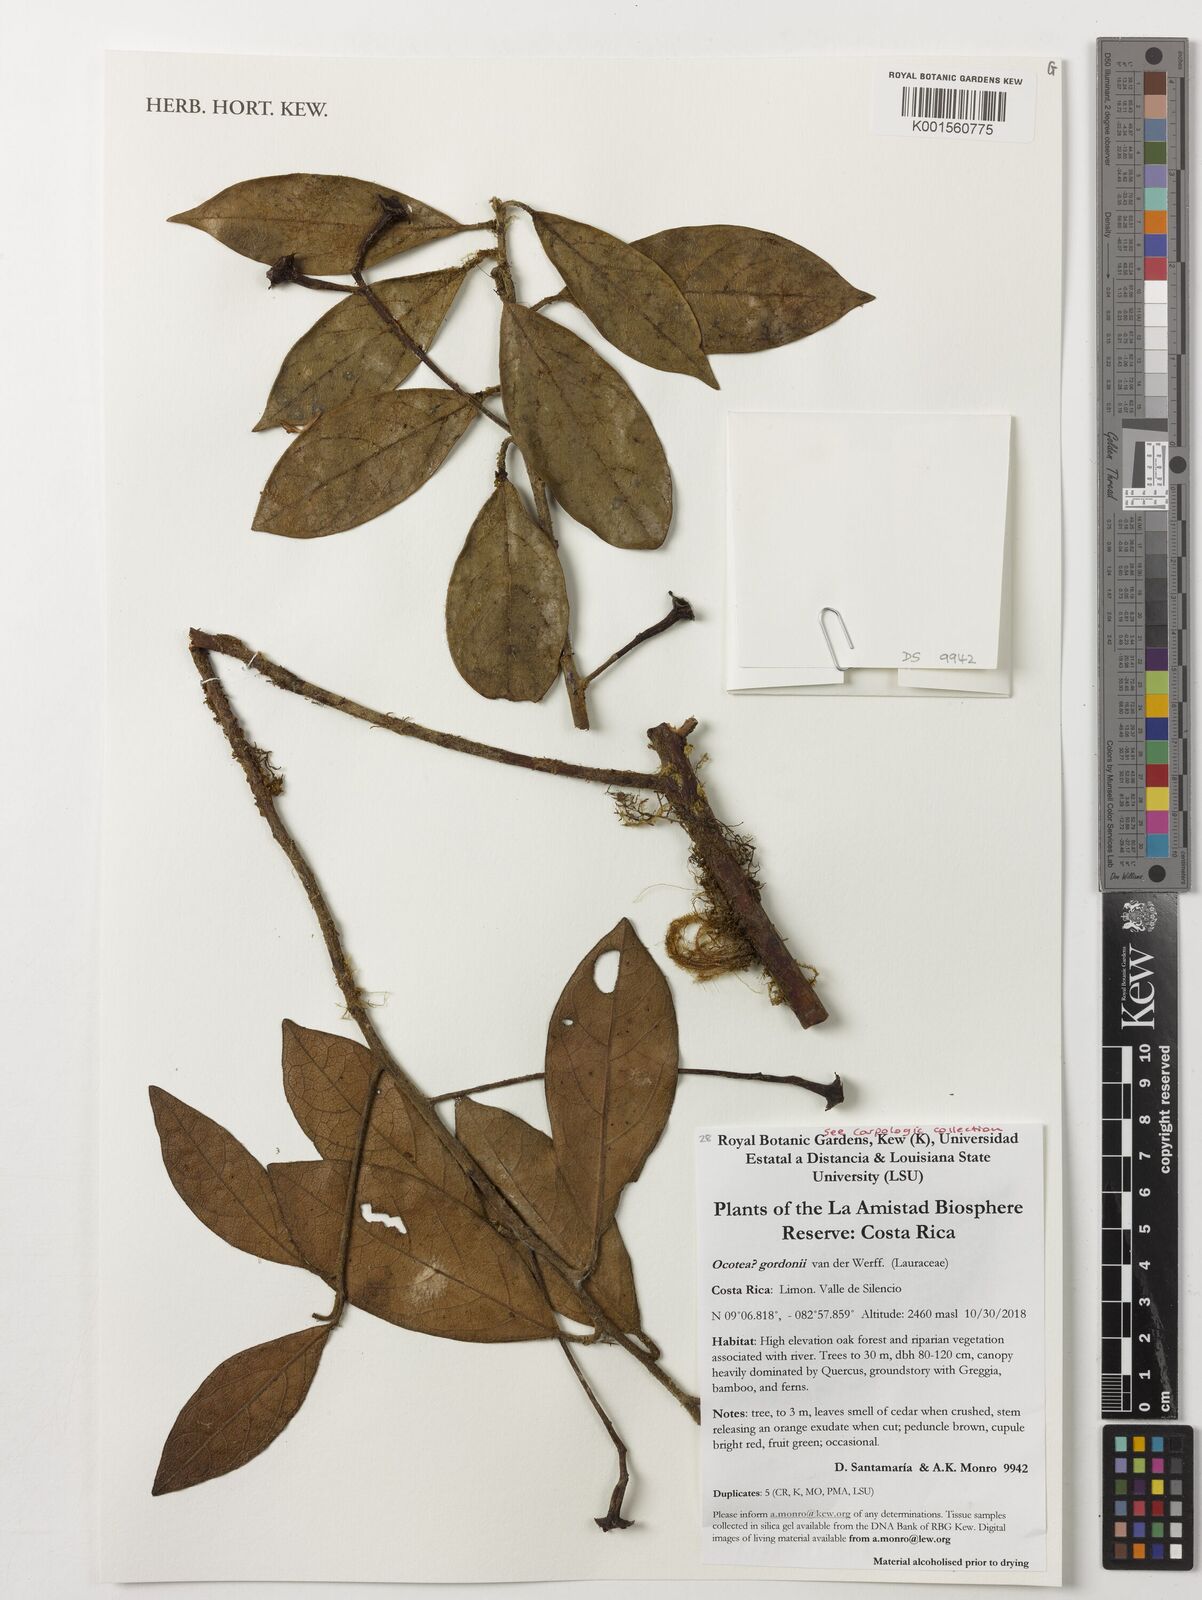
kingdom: Plantae
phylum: Tracheophyta
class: Magnoliopsida
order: Laurales
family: Lauraceae
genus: Ocotea
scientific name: Ocotea gordonii
